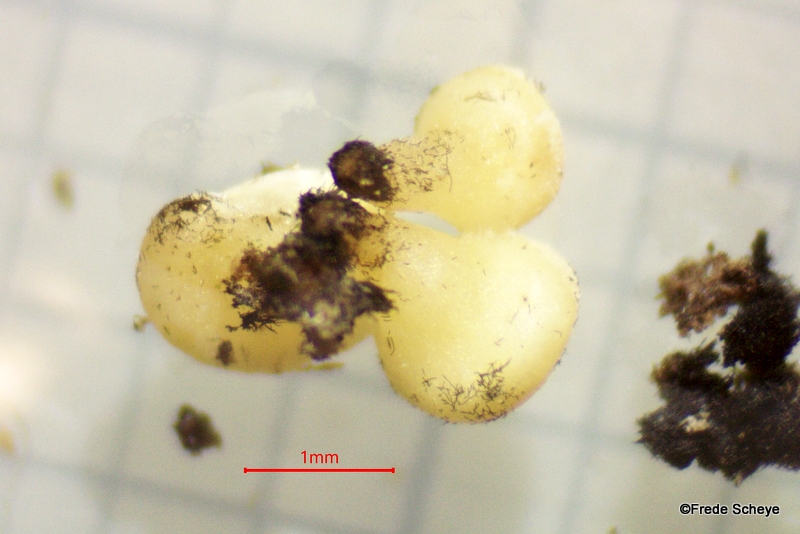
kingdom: Fungi
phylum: Ascomycota
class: Leotiomycetes
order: Helotiales
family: Helotiaceae
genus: Bispora
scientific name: Bispora pallescens
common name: måtte-snitskive
